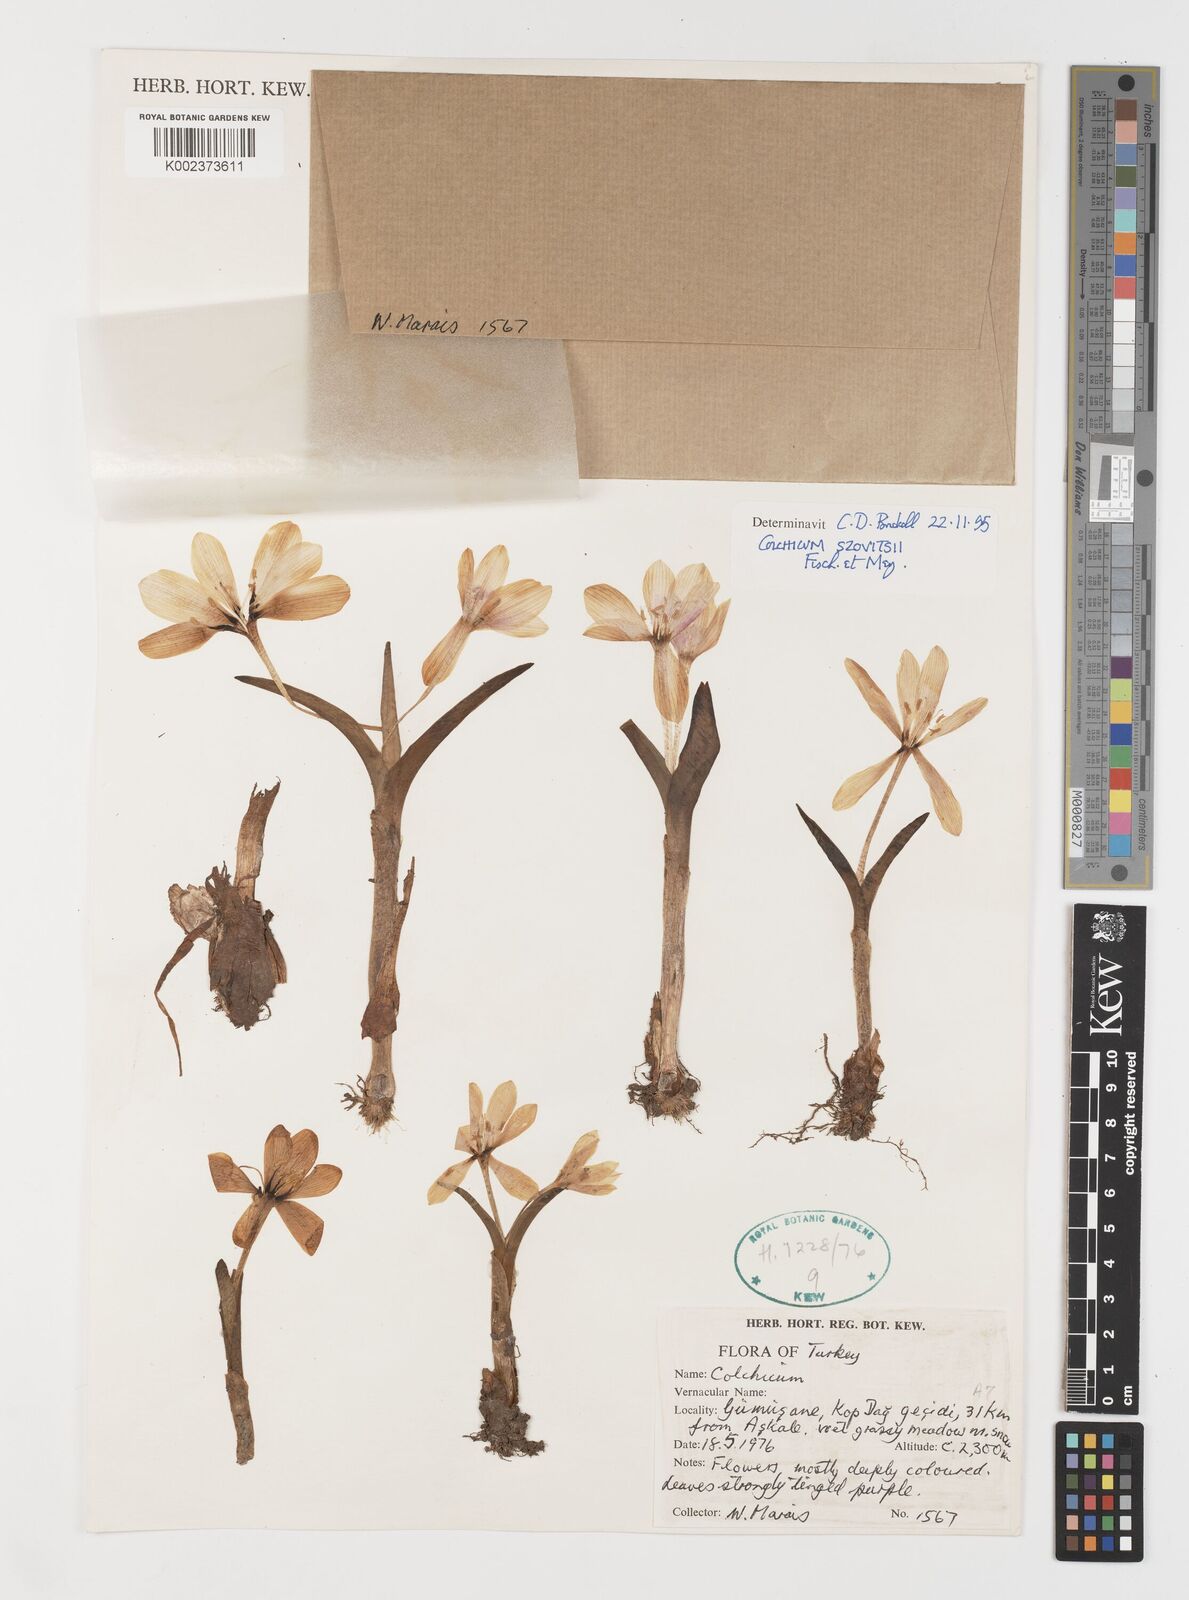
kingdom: Plantae
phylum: Tracheophyta
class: Liliopsida
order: Liliales
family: Colchicaceae
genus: Colchicum
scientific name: Colchicum szovitsii
